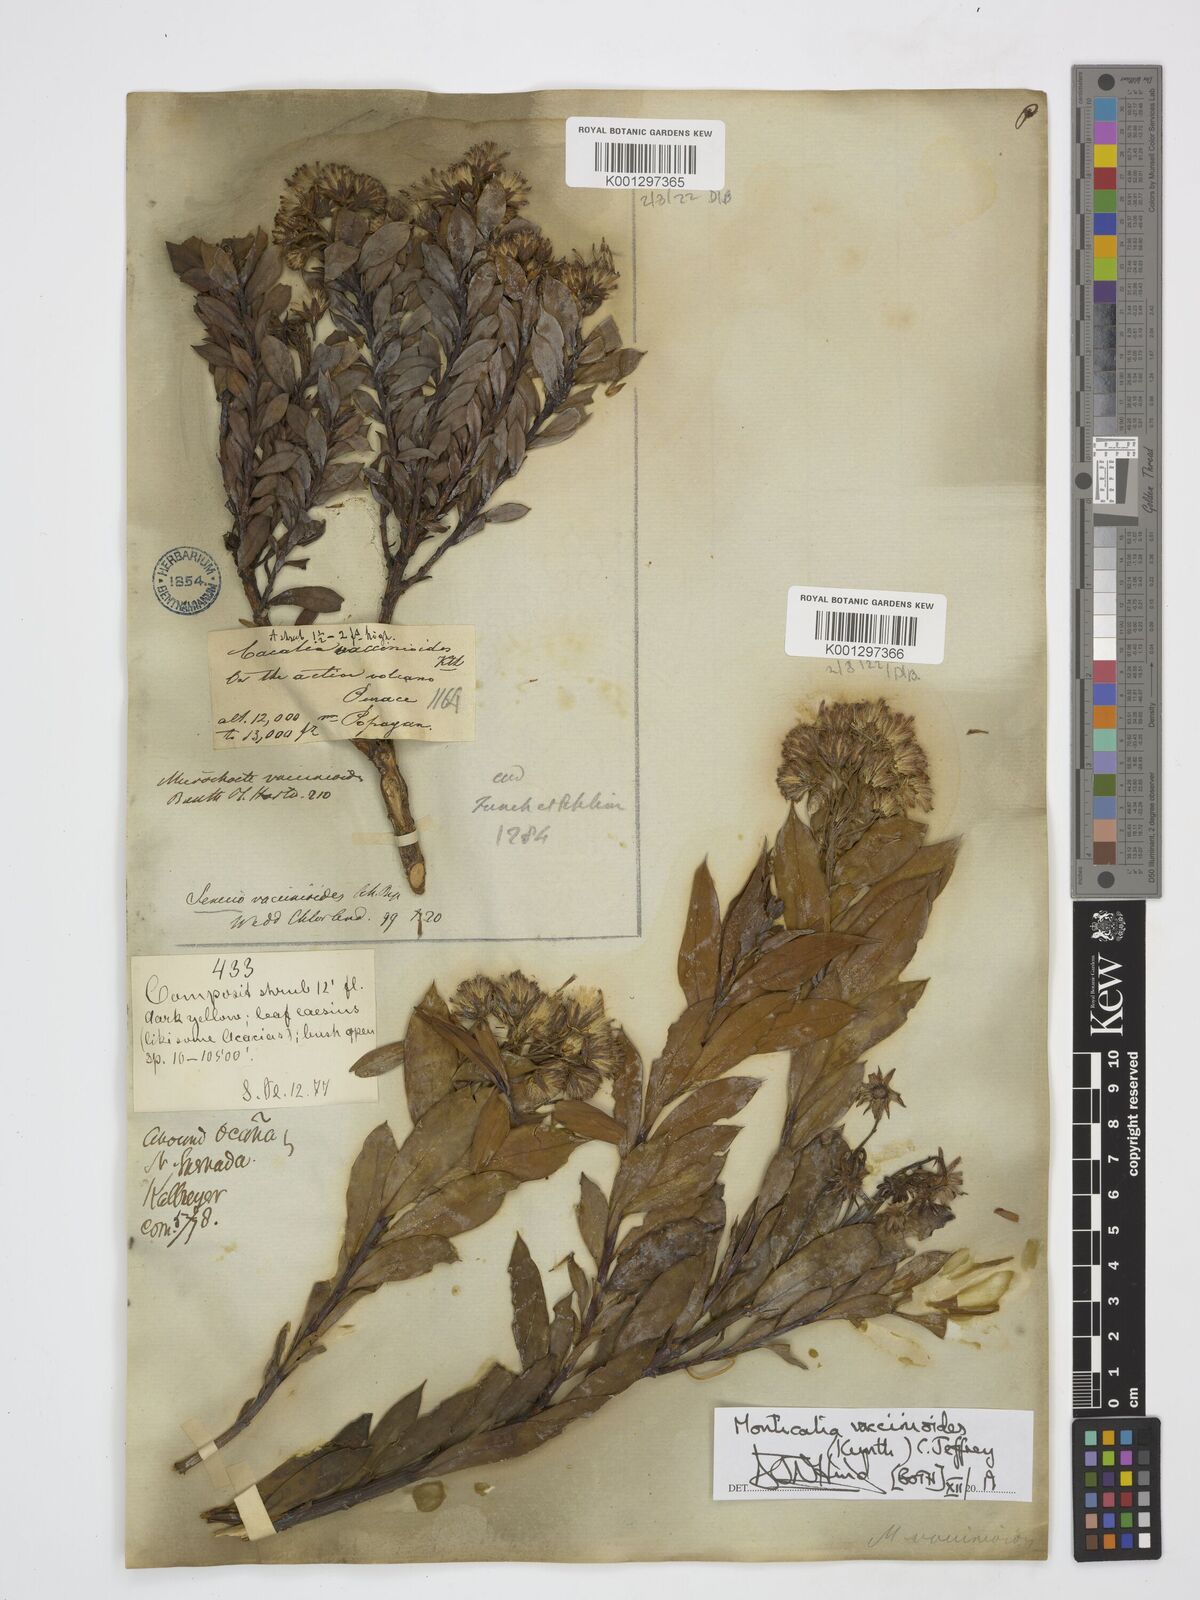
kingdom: Plantae
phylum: Tracheophyta
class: Magnoliopsida
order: Asterales
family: Asteraceae
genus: Monticalia
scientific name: Monticalia vaccinioides
